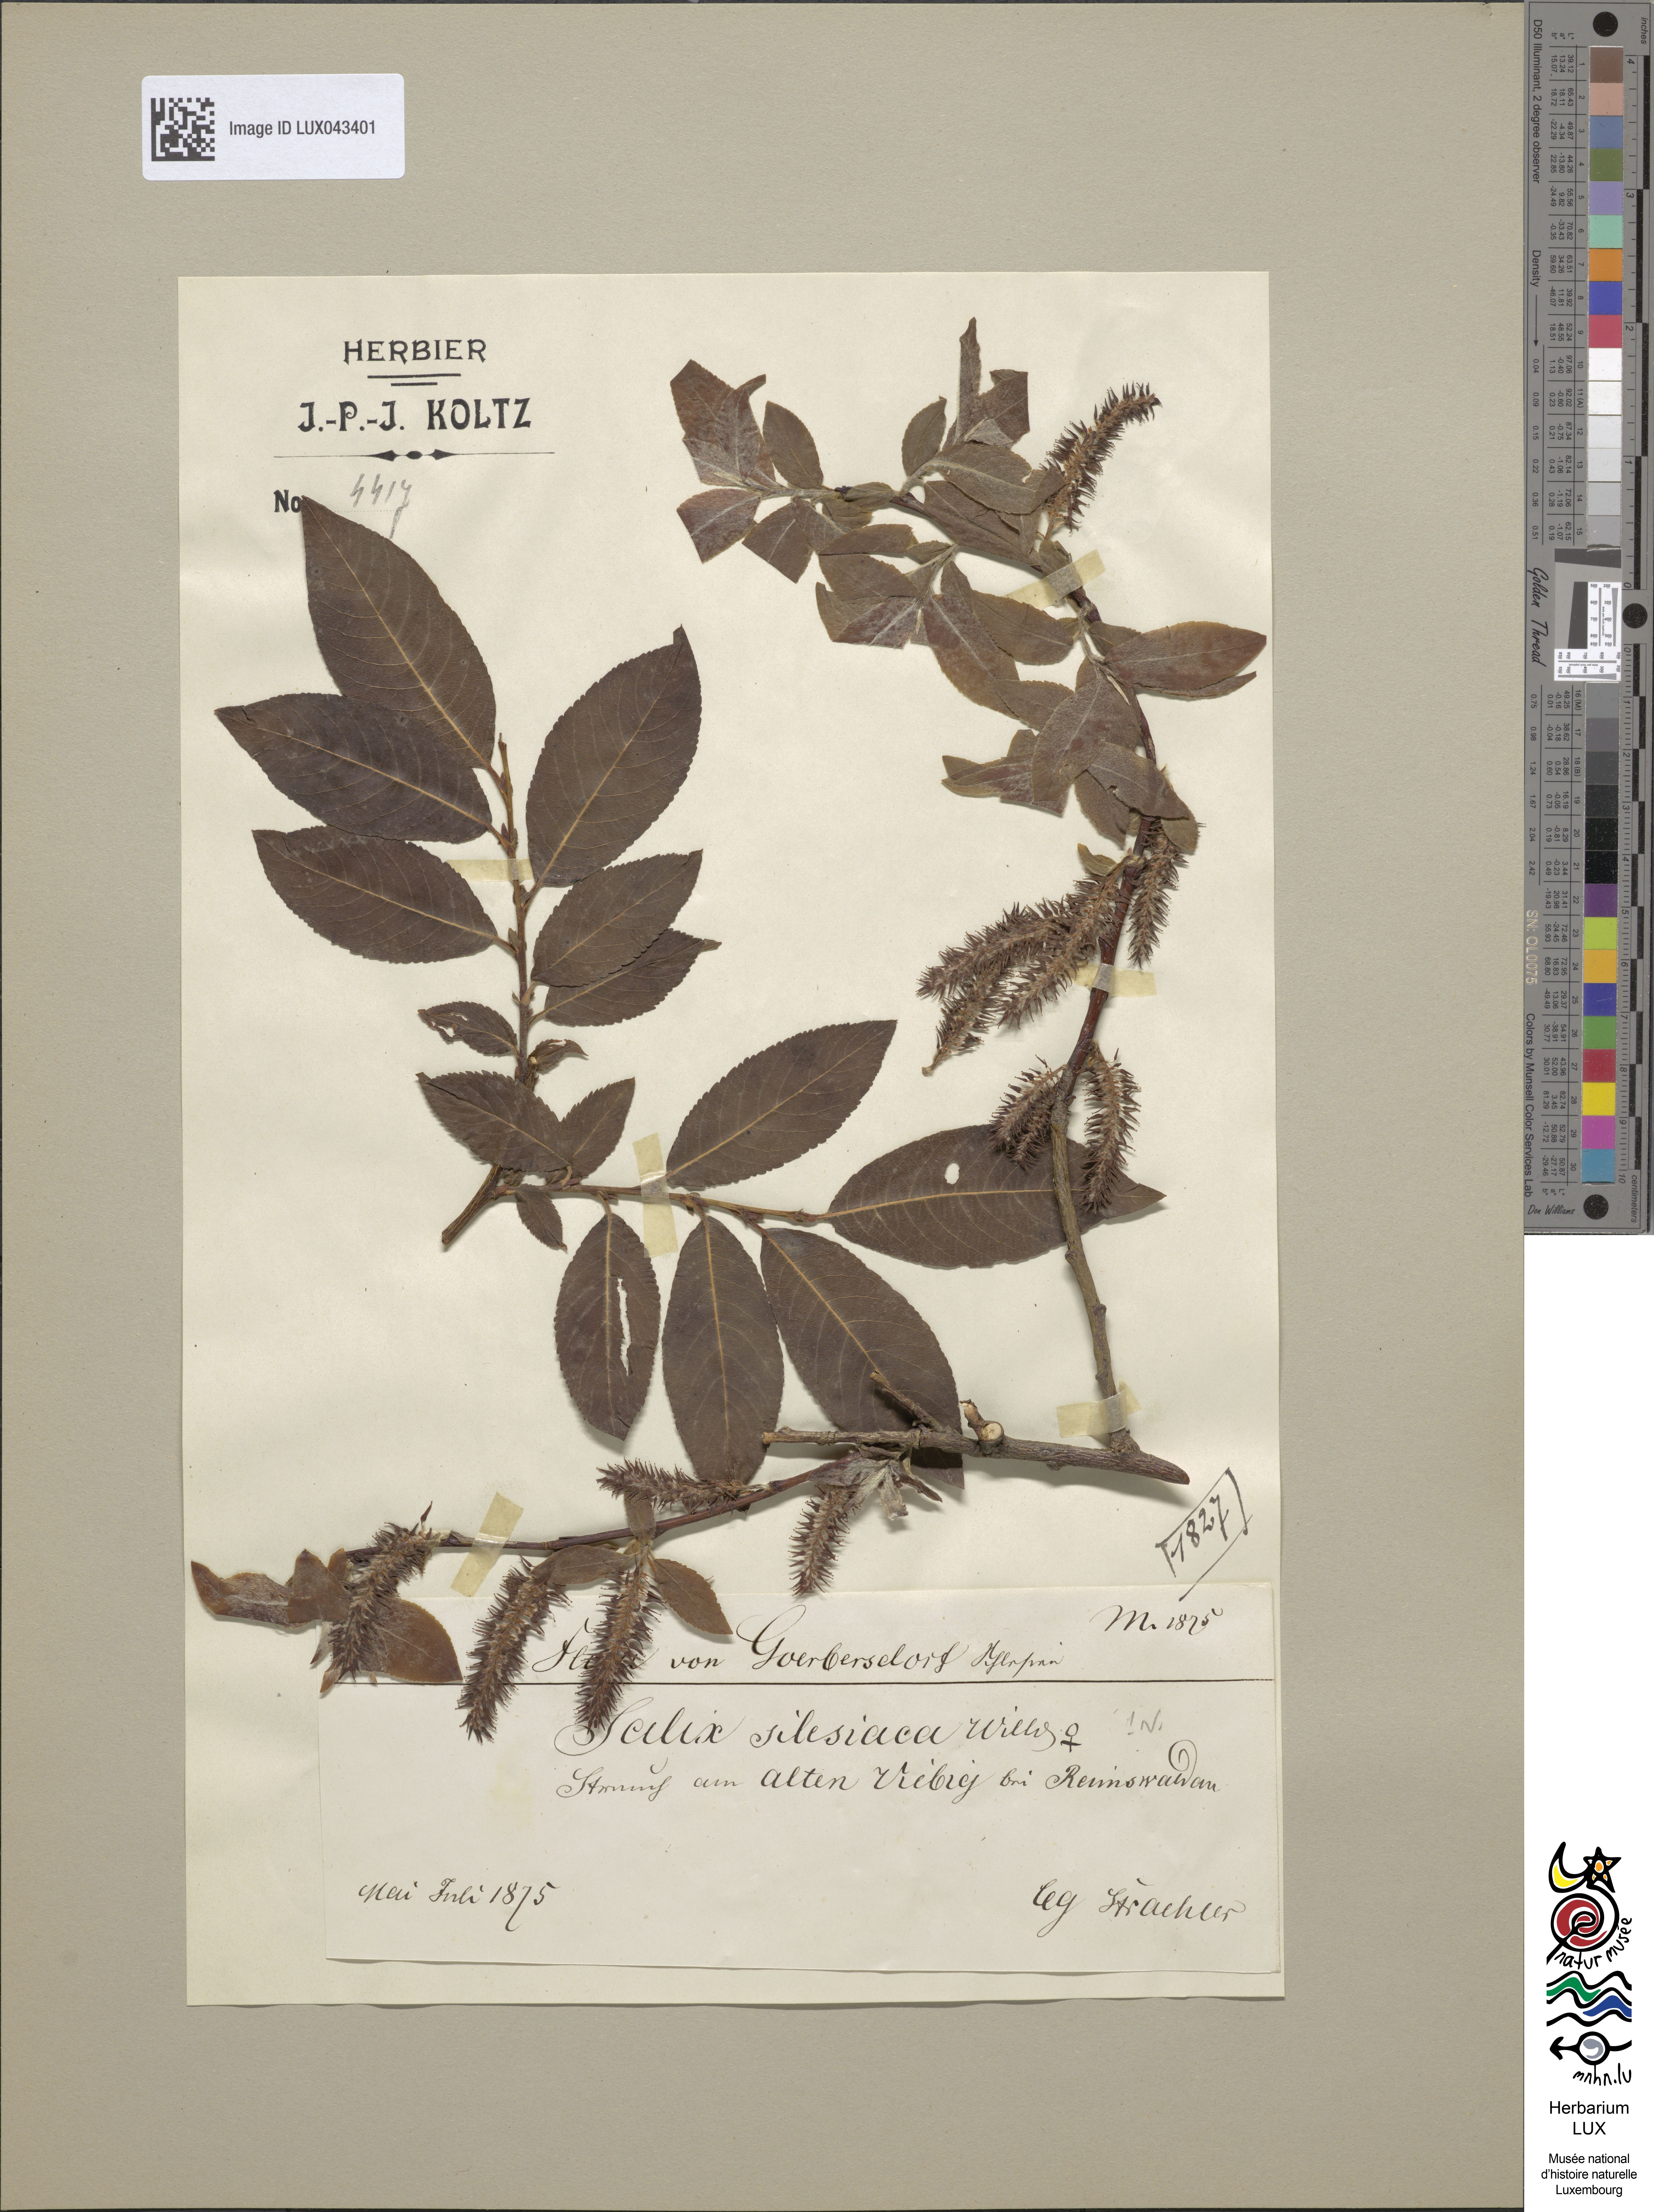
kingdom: Plantae
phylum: Tracheophyta
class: Magnoliopsida
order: Malpighiales
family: Salicaceae
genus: Salix
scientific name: Salix silesiaca
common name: Silesian willow
